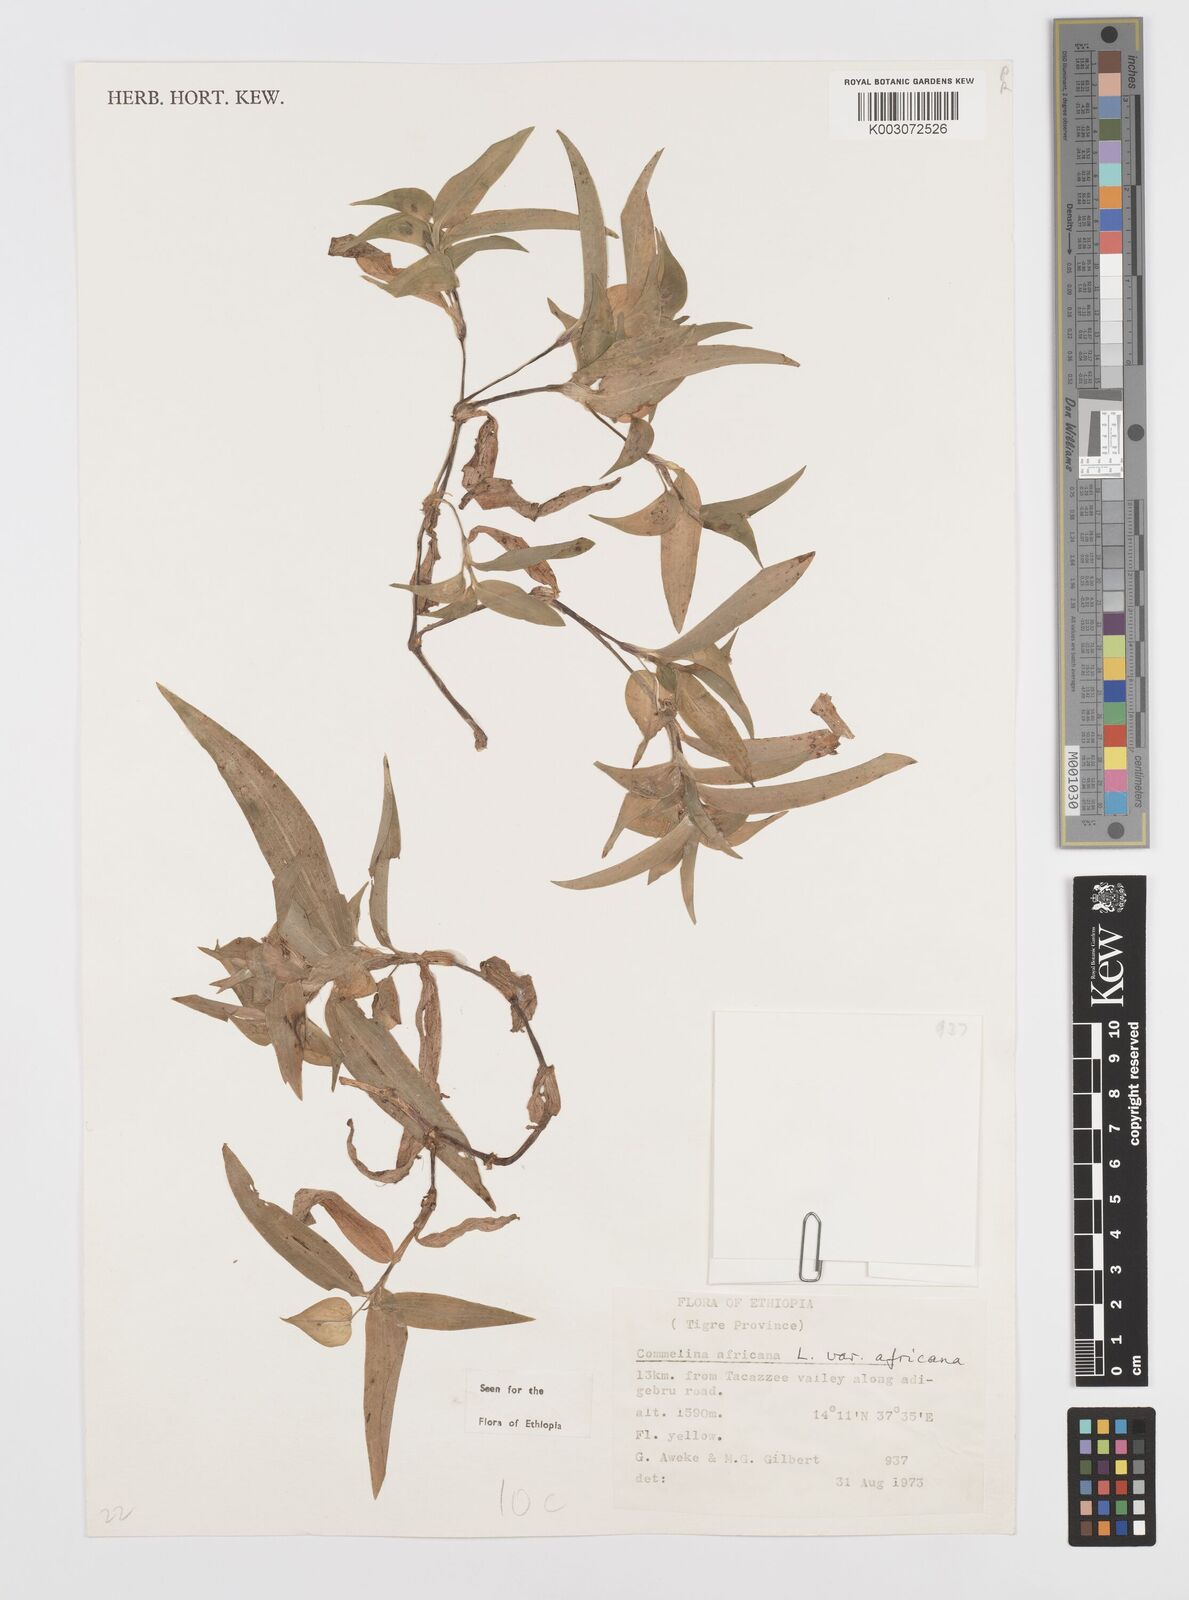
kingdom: Plantae
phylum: Tracheophyta
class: Liliopsida
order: Commelinales
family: Commelinaceae
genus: Commelina
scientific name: Commelina africana
